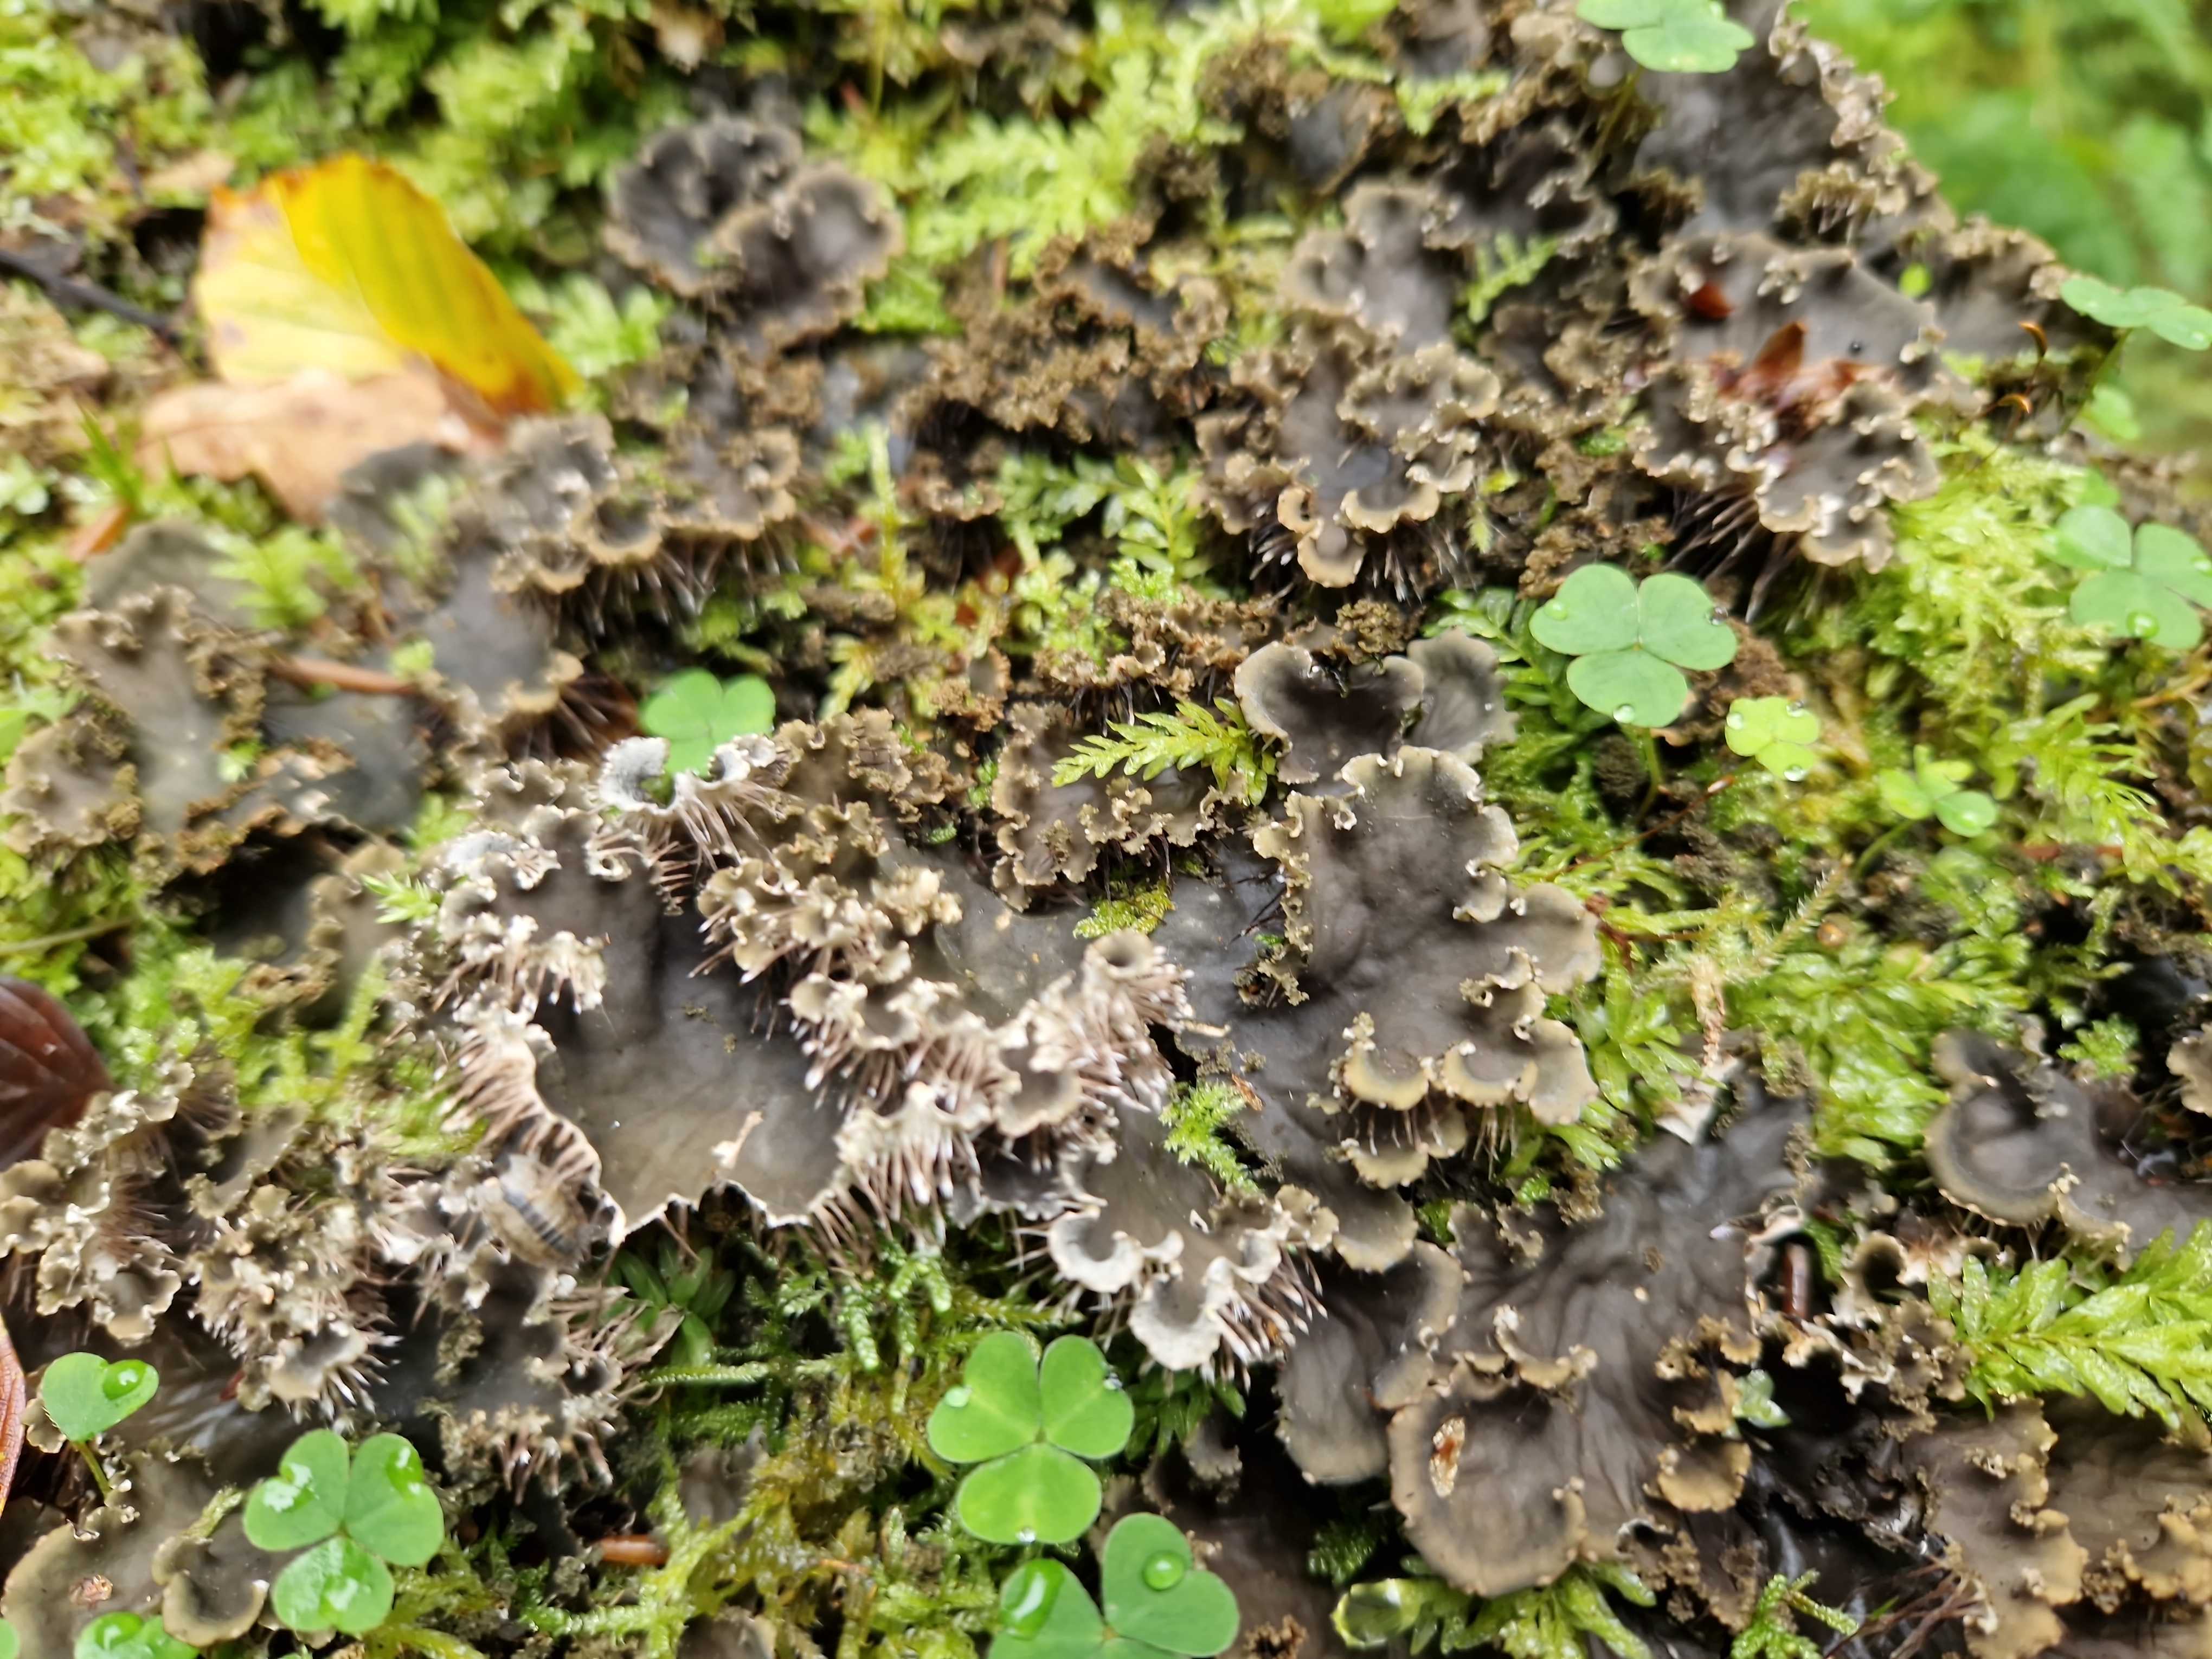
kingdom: Fungi
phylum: Ascomycota
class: Lecanoromycetes
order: Peltigerales
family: Peltigeraceae
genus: Peltigera
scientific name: Peltigera praetextata
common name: kruset skjoldlav
